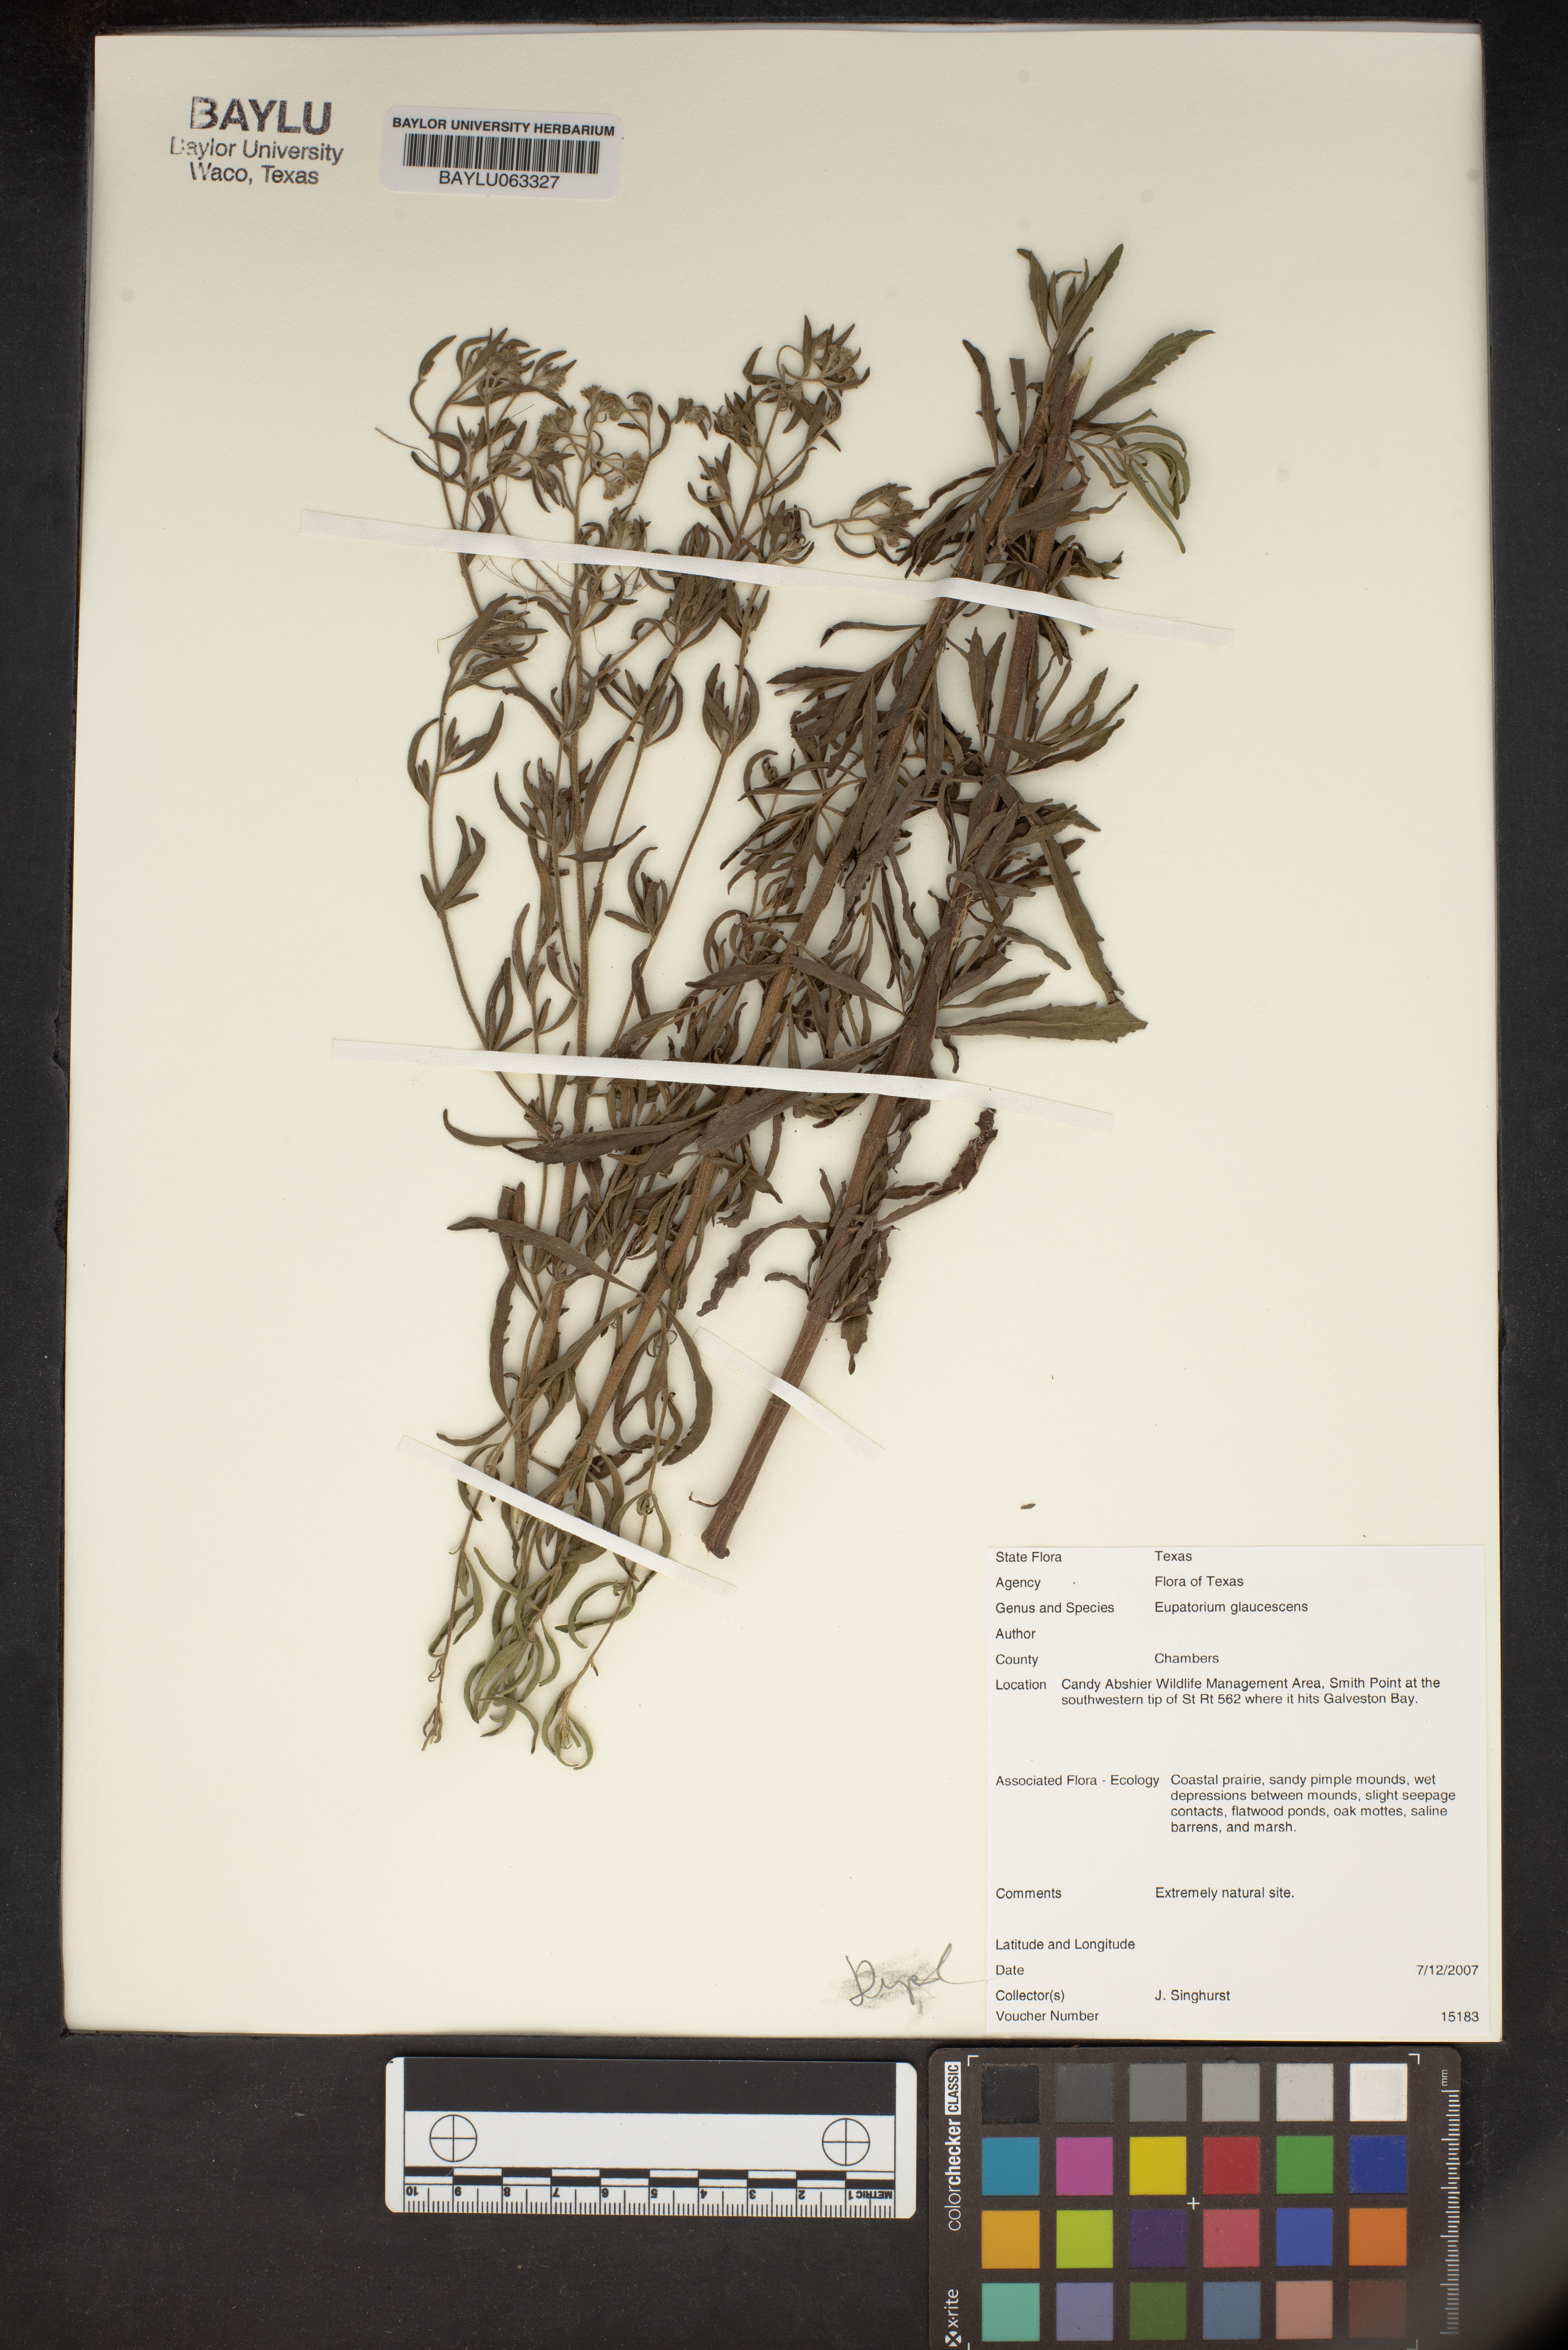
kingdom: Plantae
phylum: Tracheophyta
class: Magnoliopsida
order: Asterales
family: Asteraceae
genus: Eupatorium
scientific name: Eupatorium linearifolium
